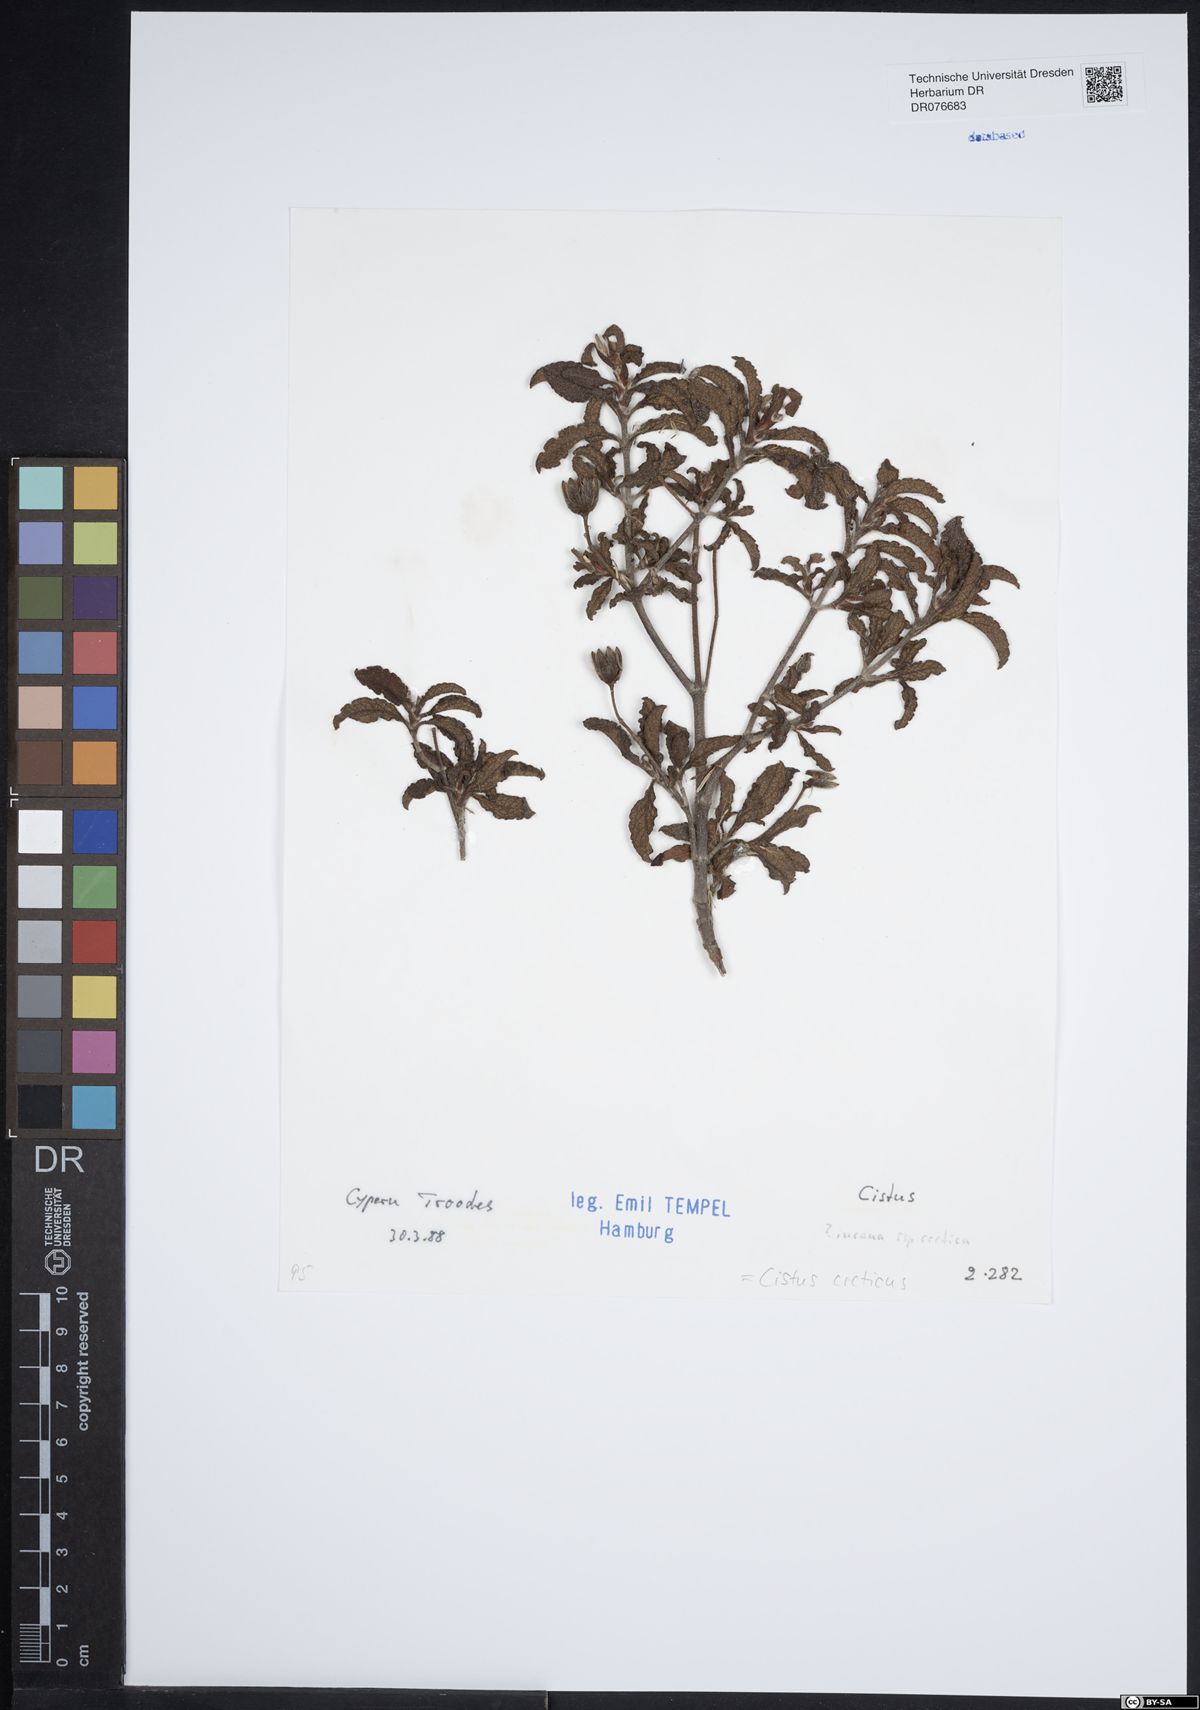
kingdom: Plantae
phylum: Tracheophyta
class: Magnoliopsida
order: Malvales
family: Cistaceae
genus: Cistus
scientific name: Cistus creticus
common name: Cretan rockrose
